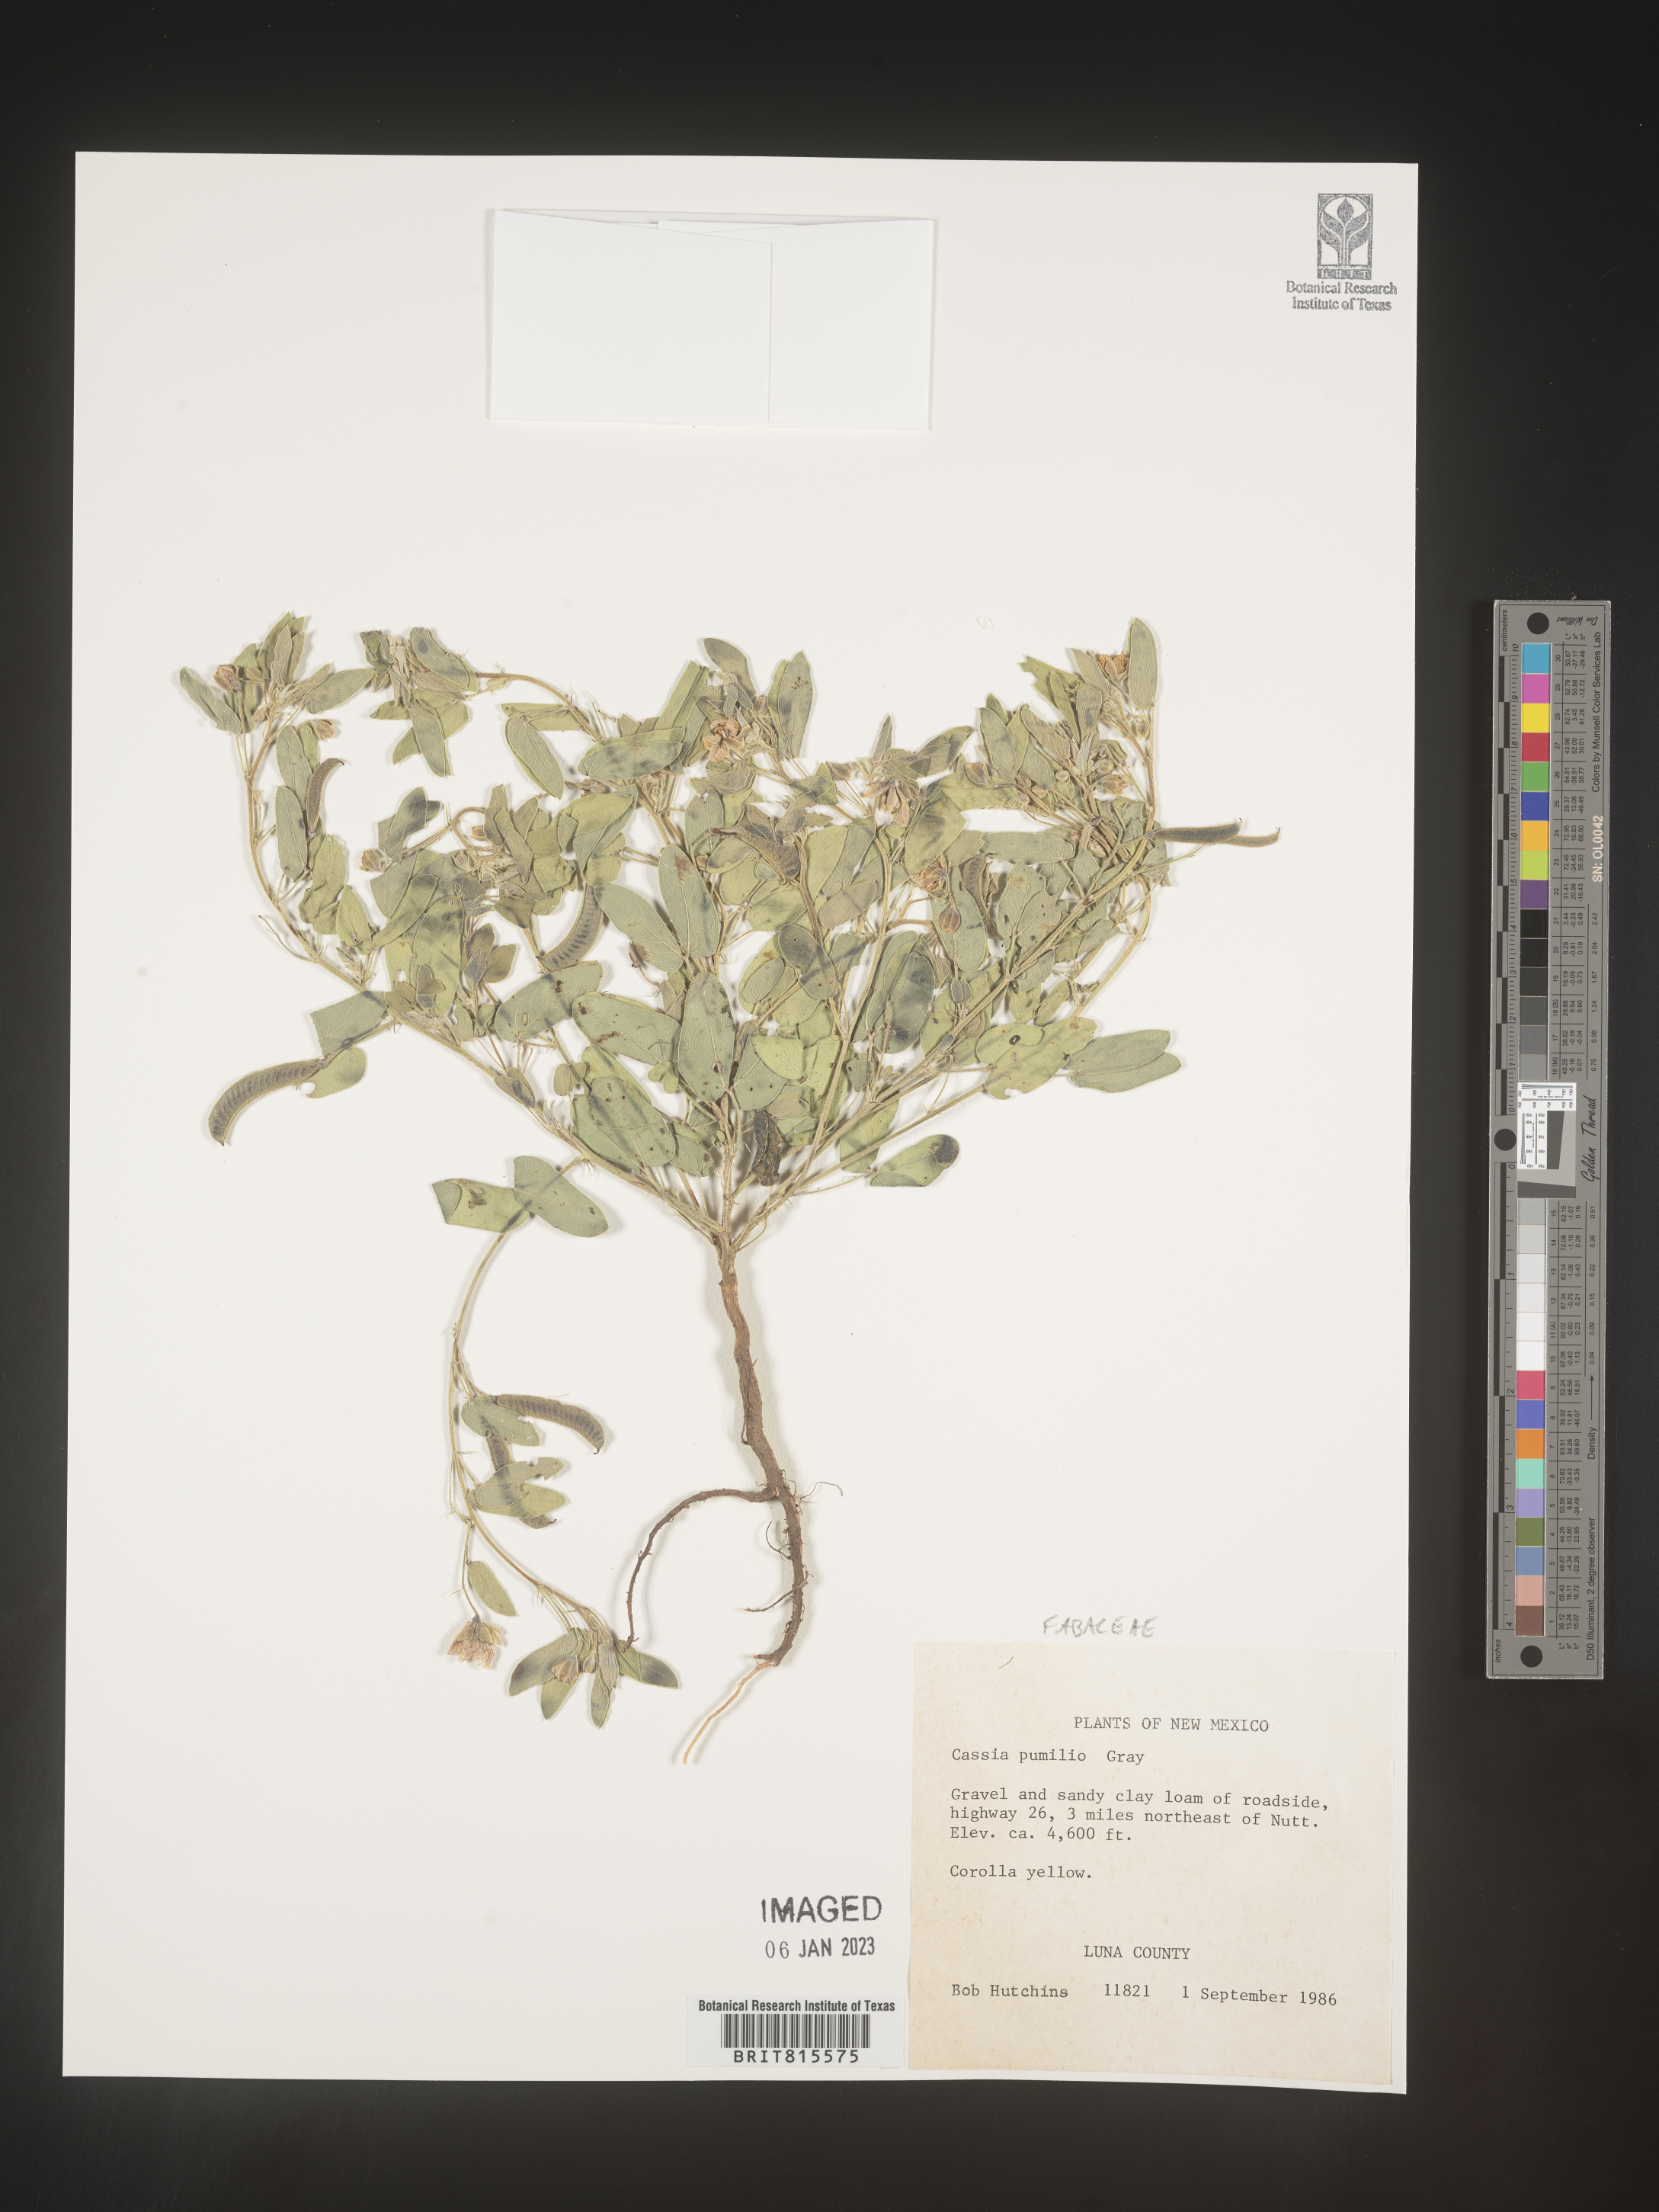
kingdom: Plantae
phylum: Tracheophyta
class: Magnoliopsida
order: Fabales
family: Fabaceae
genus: Cassia
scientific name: Cassia
